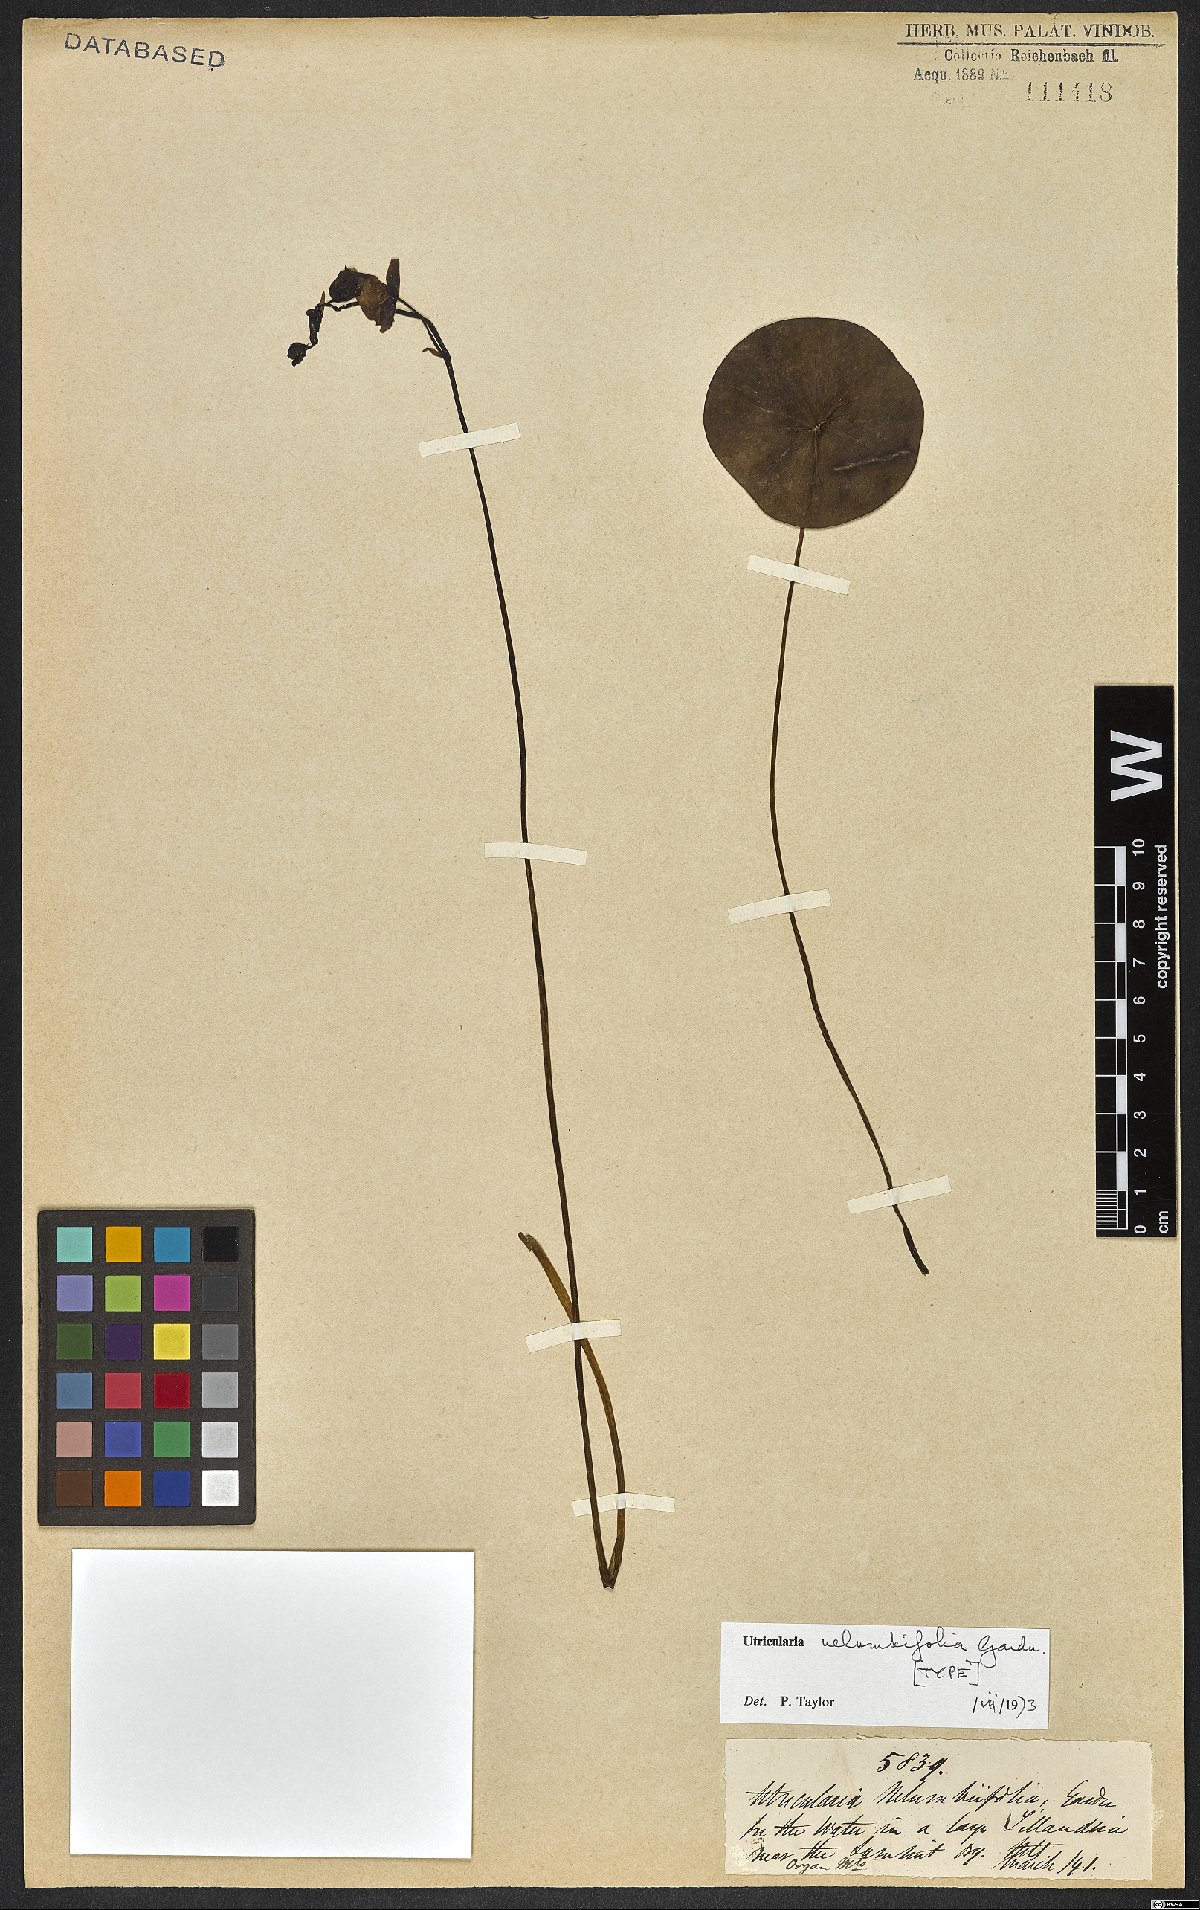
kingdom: Plantae
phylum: Tracheophyta
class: Magnoliopsida
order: Lamiales
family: Lentibulariaceae
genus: Utricularia
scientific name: Utricularia nelumbifolia
